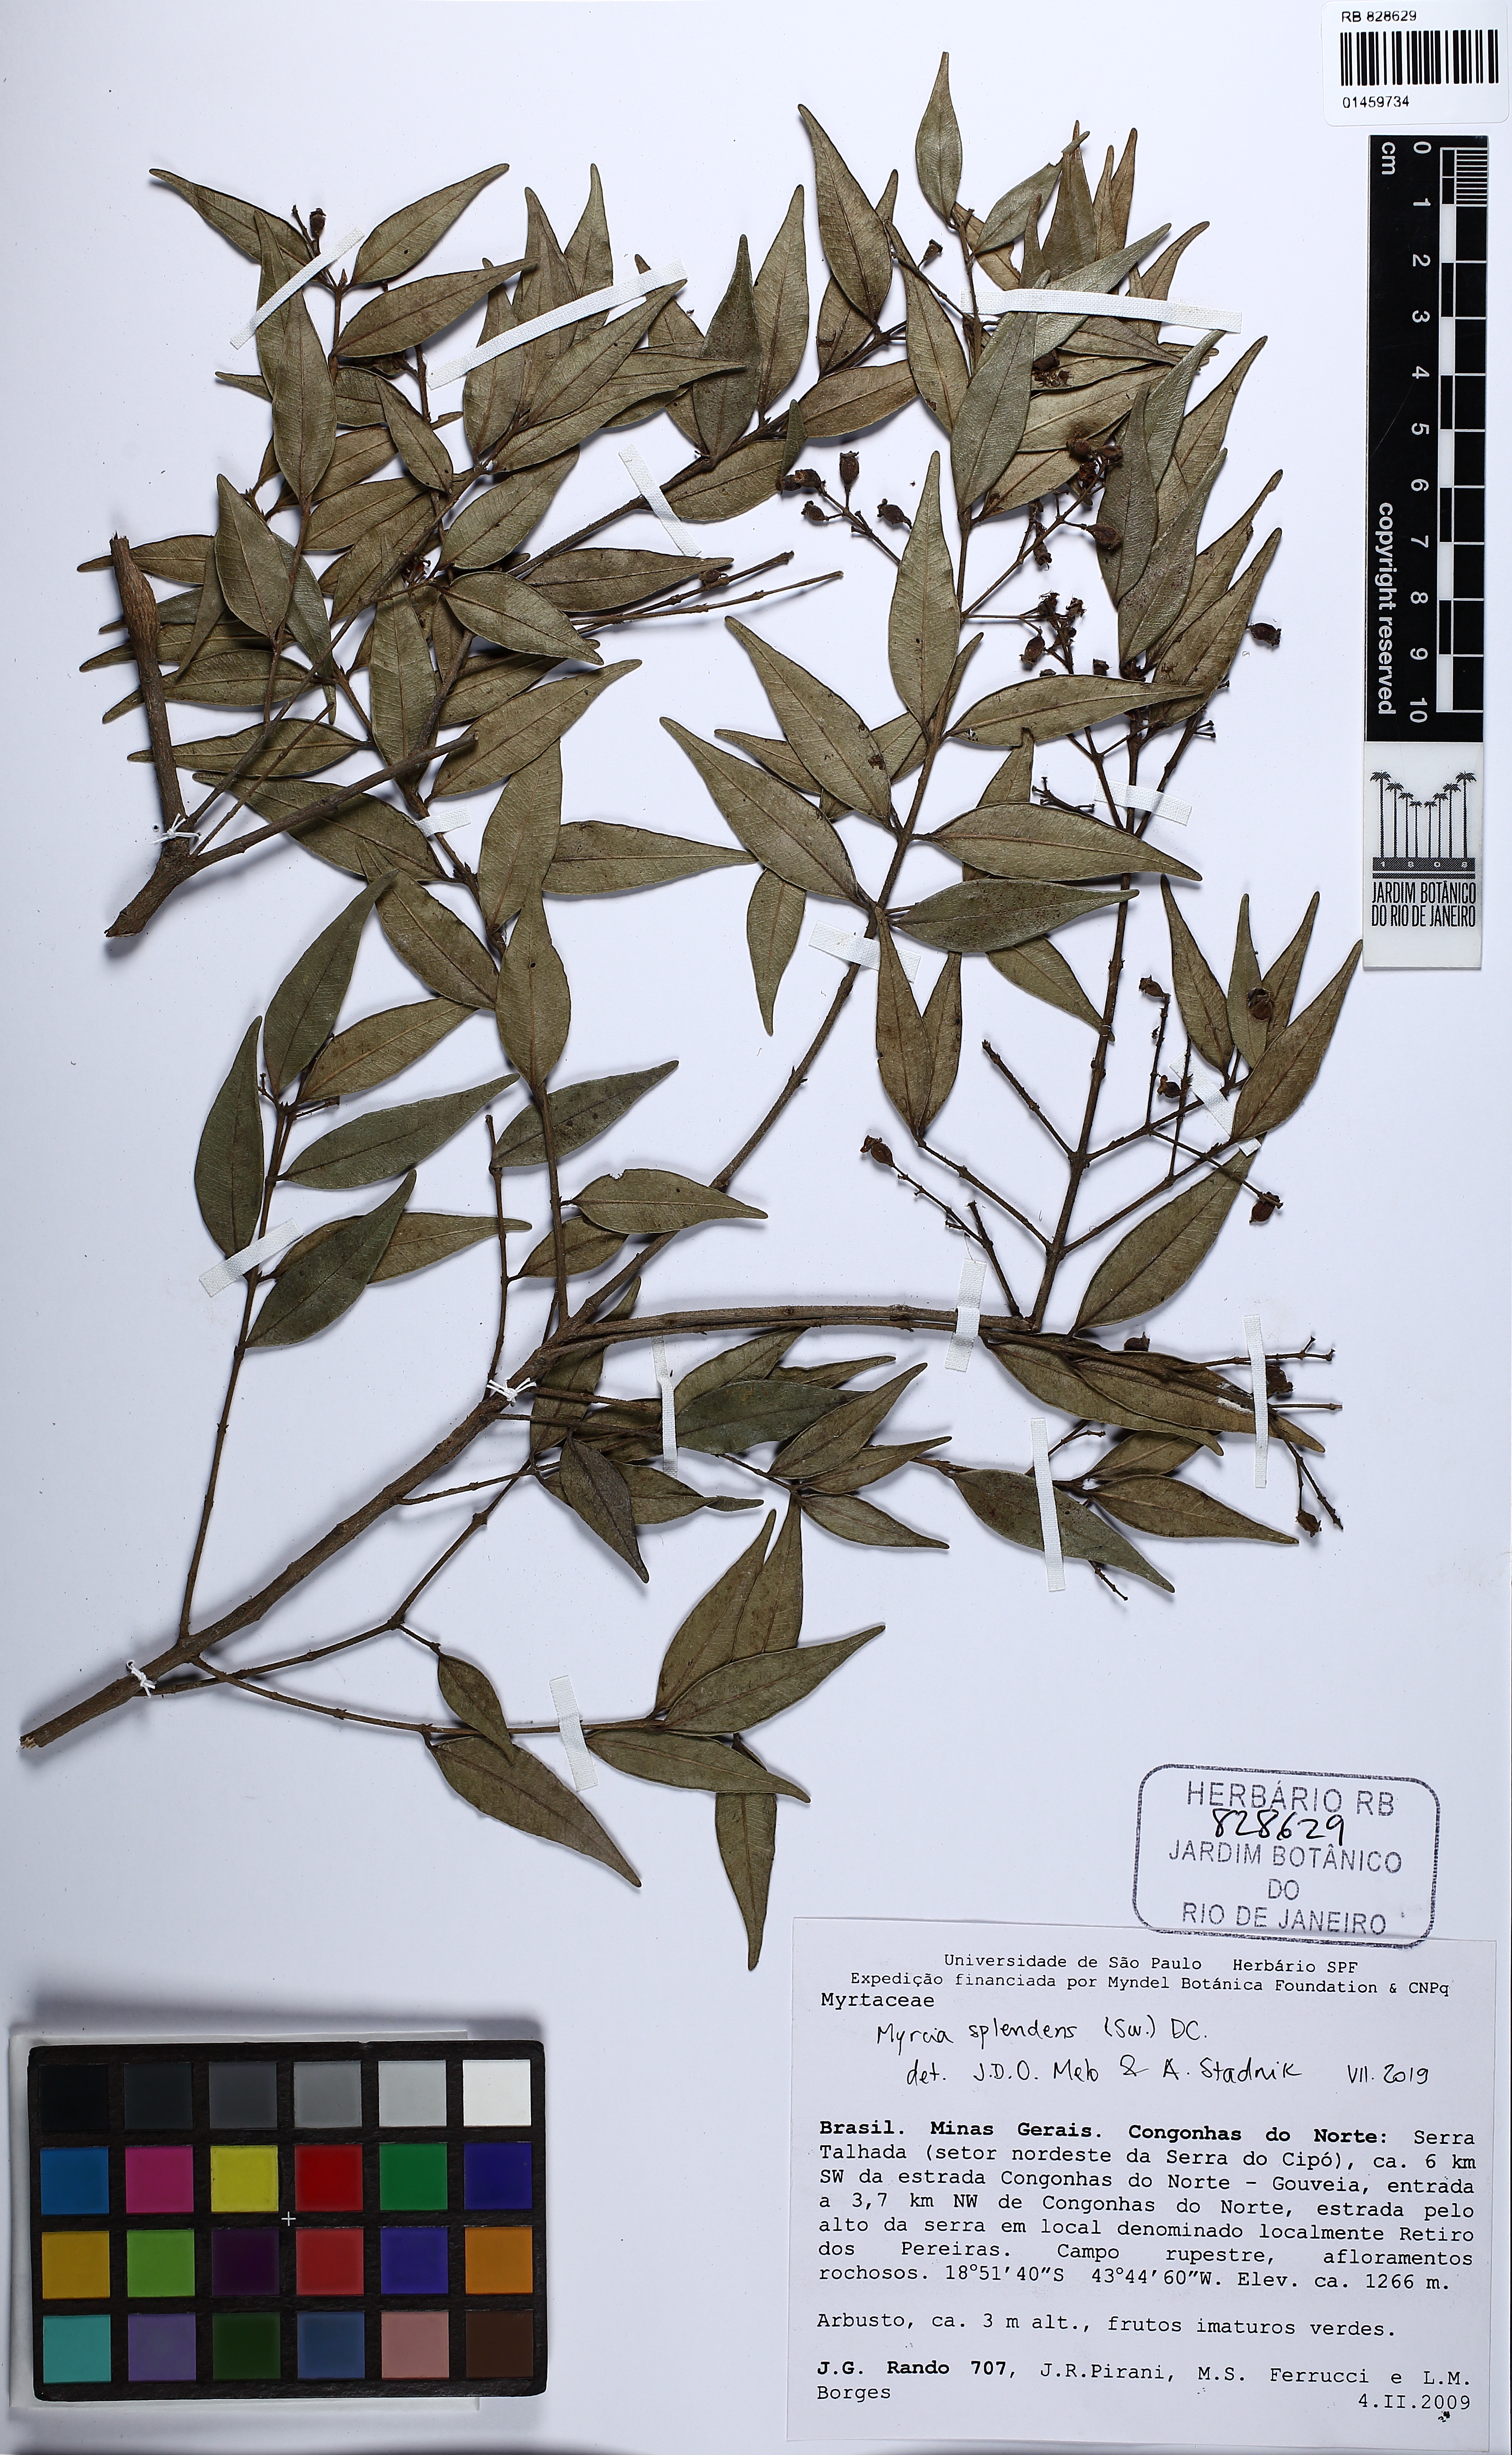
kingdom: Plantae
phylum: Tracheophyta
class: Magnoliopsida
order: Myrtales
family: Myrtaceae
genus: Myrcia
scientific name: Myrcia splendens
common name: Surinam cherry
